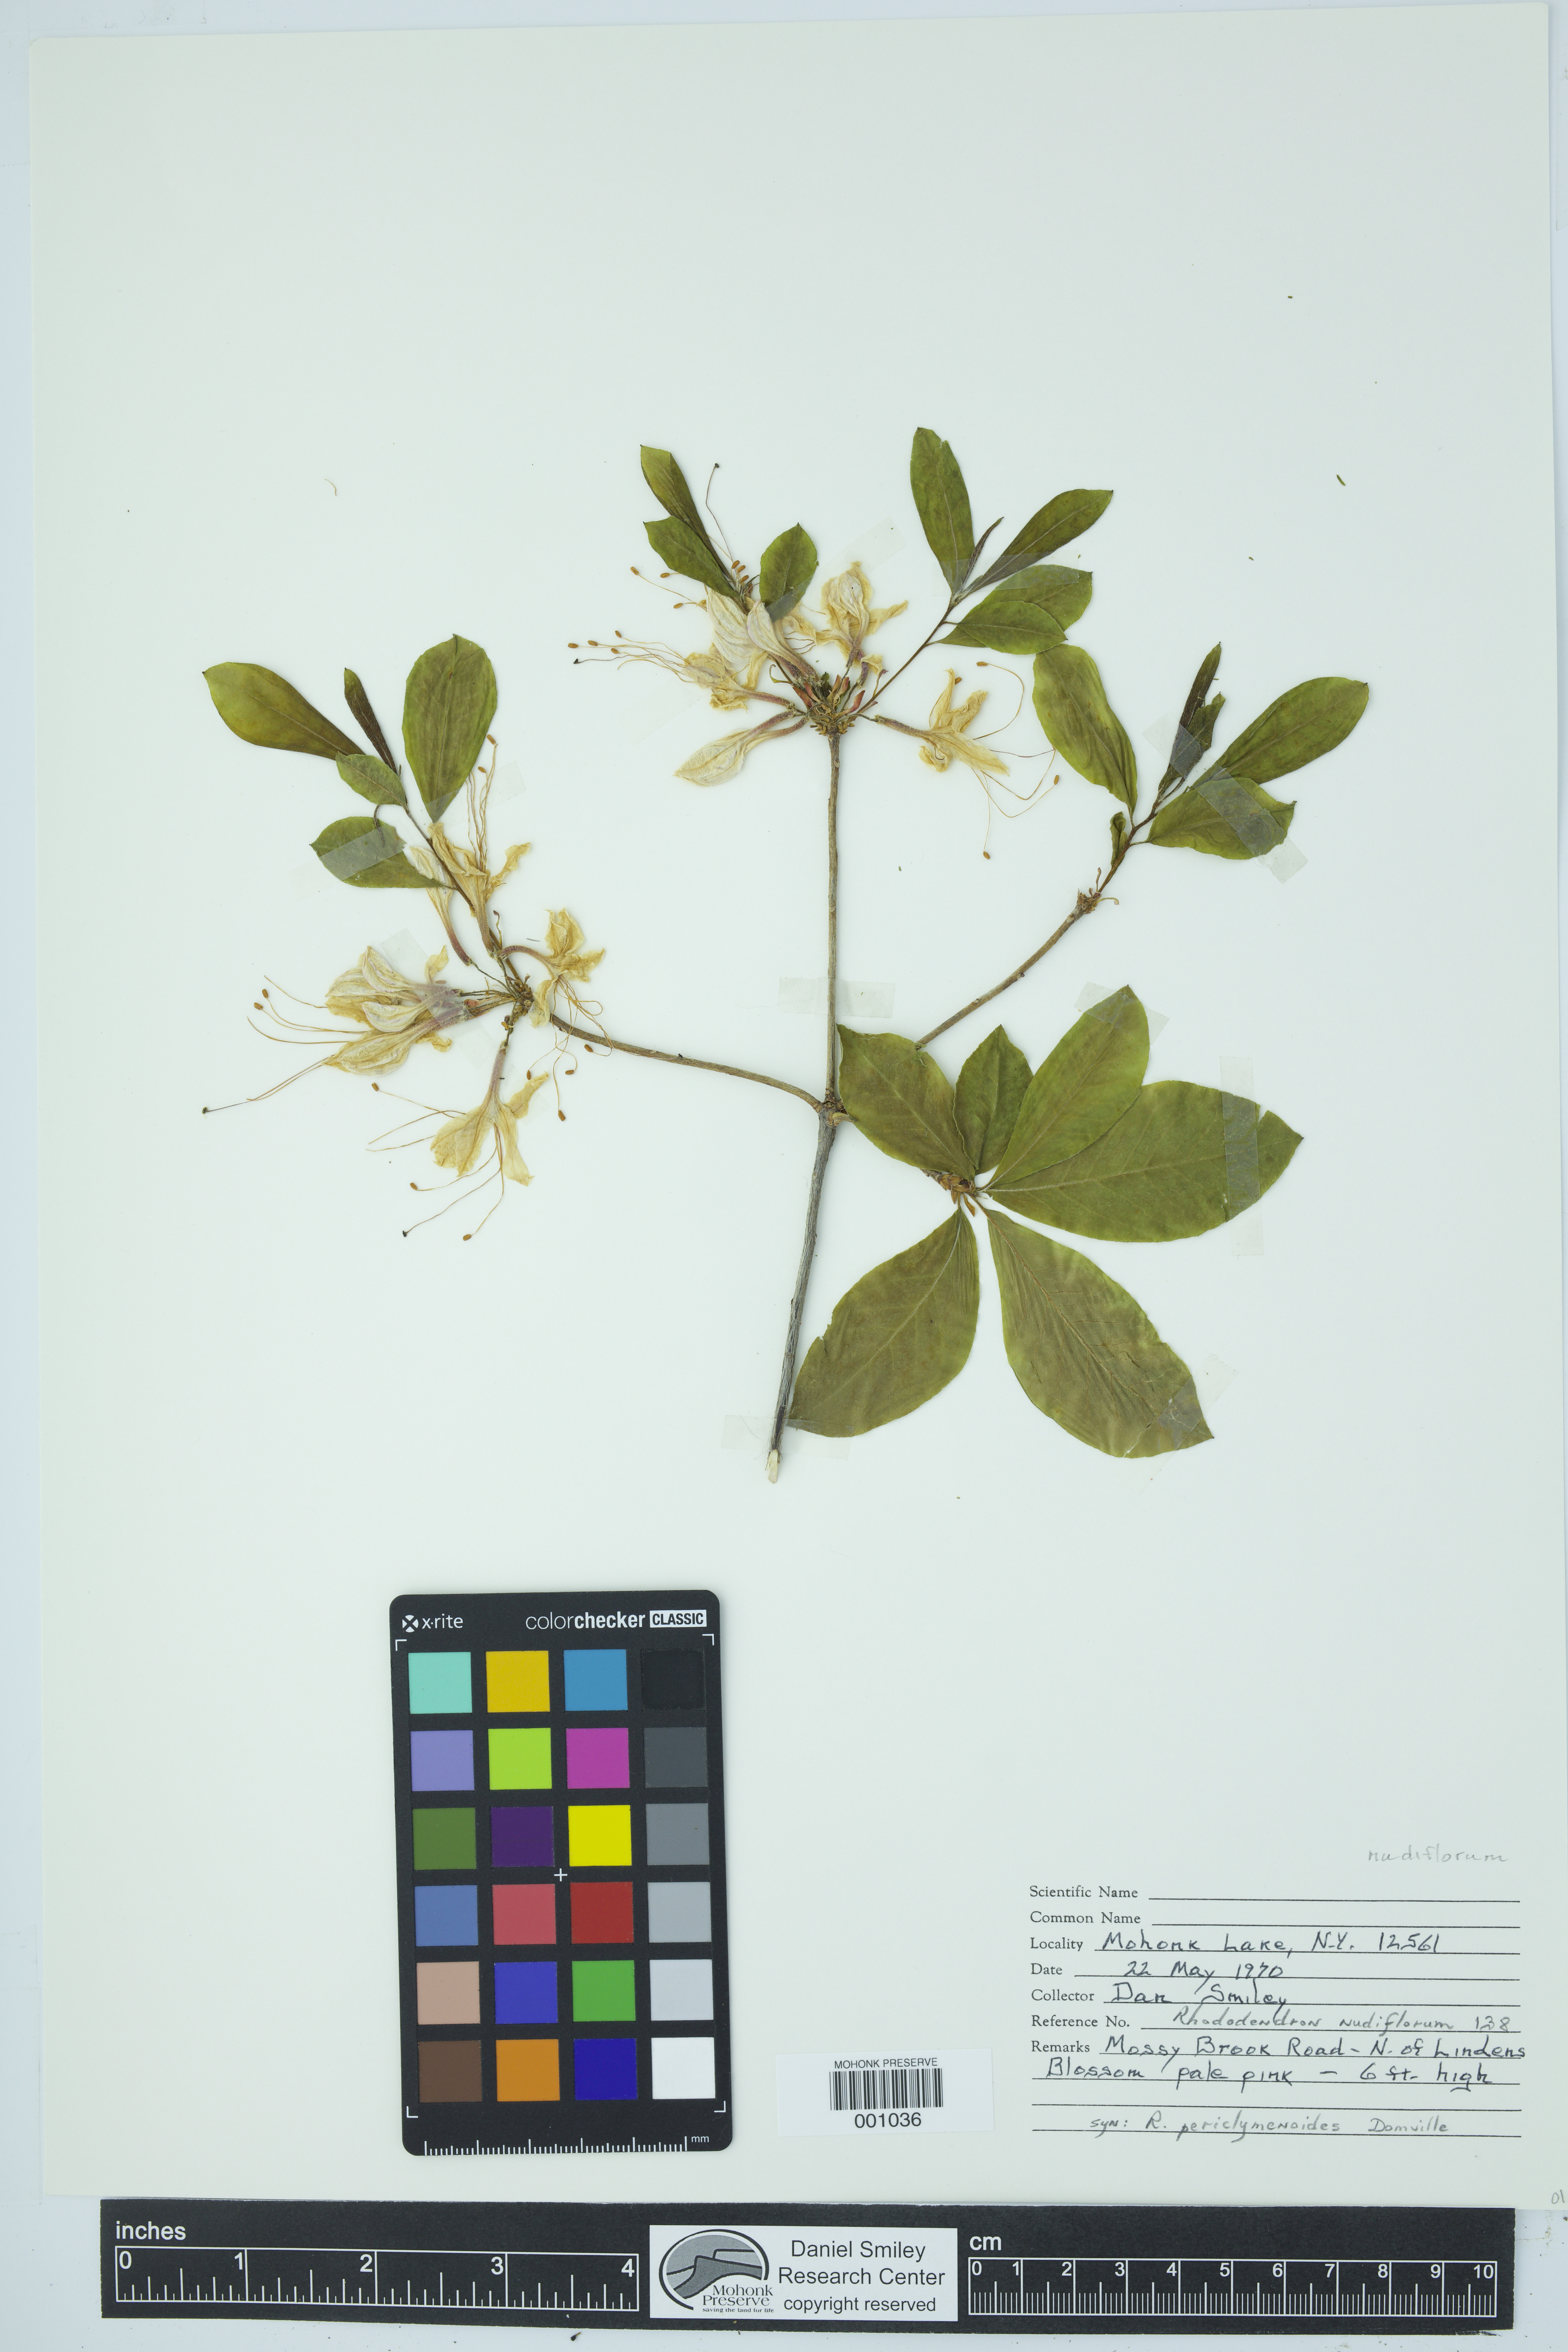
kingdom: Plantae
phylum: Tracheophyta
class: Magnoliopsida
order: Ericales
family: Ericaceae
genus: Rhododendron
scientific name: Rhododendron periclymenoides
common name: Election-pink
